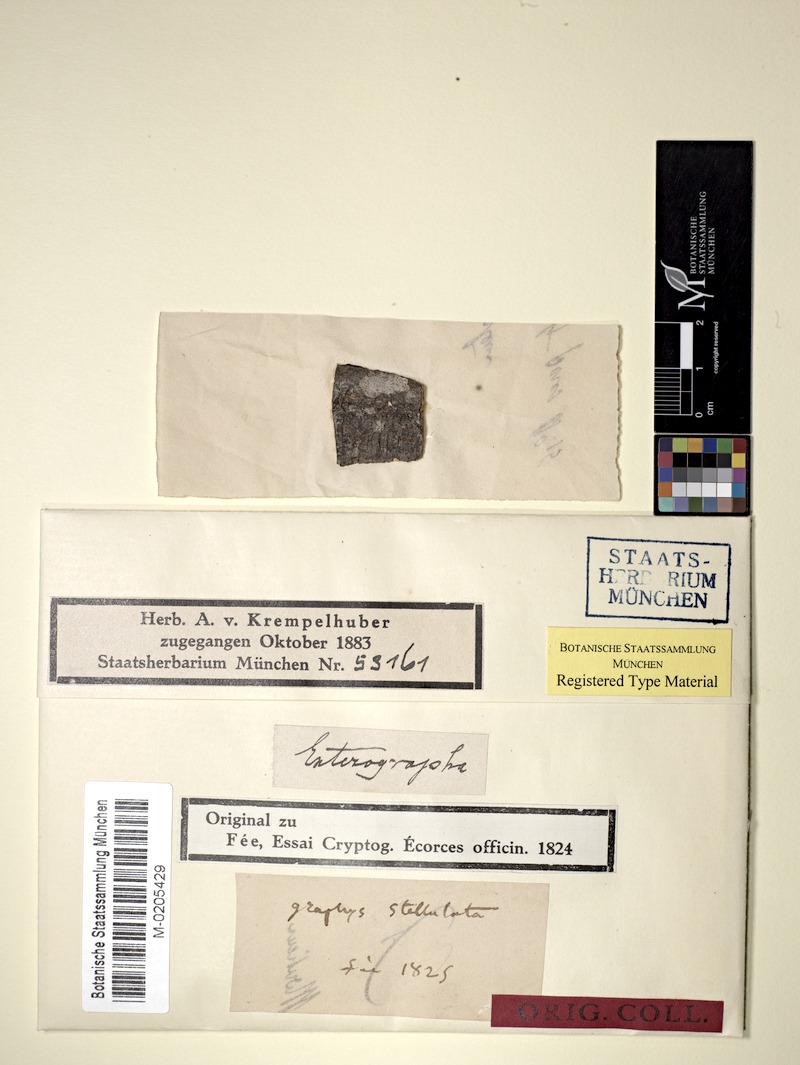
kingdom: Fungi
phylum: Ascomycota
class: Arthoniomycetes
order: Arthoniales
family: Roccellaceae
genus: Enterographa
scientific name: Enterographa
